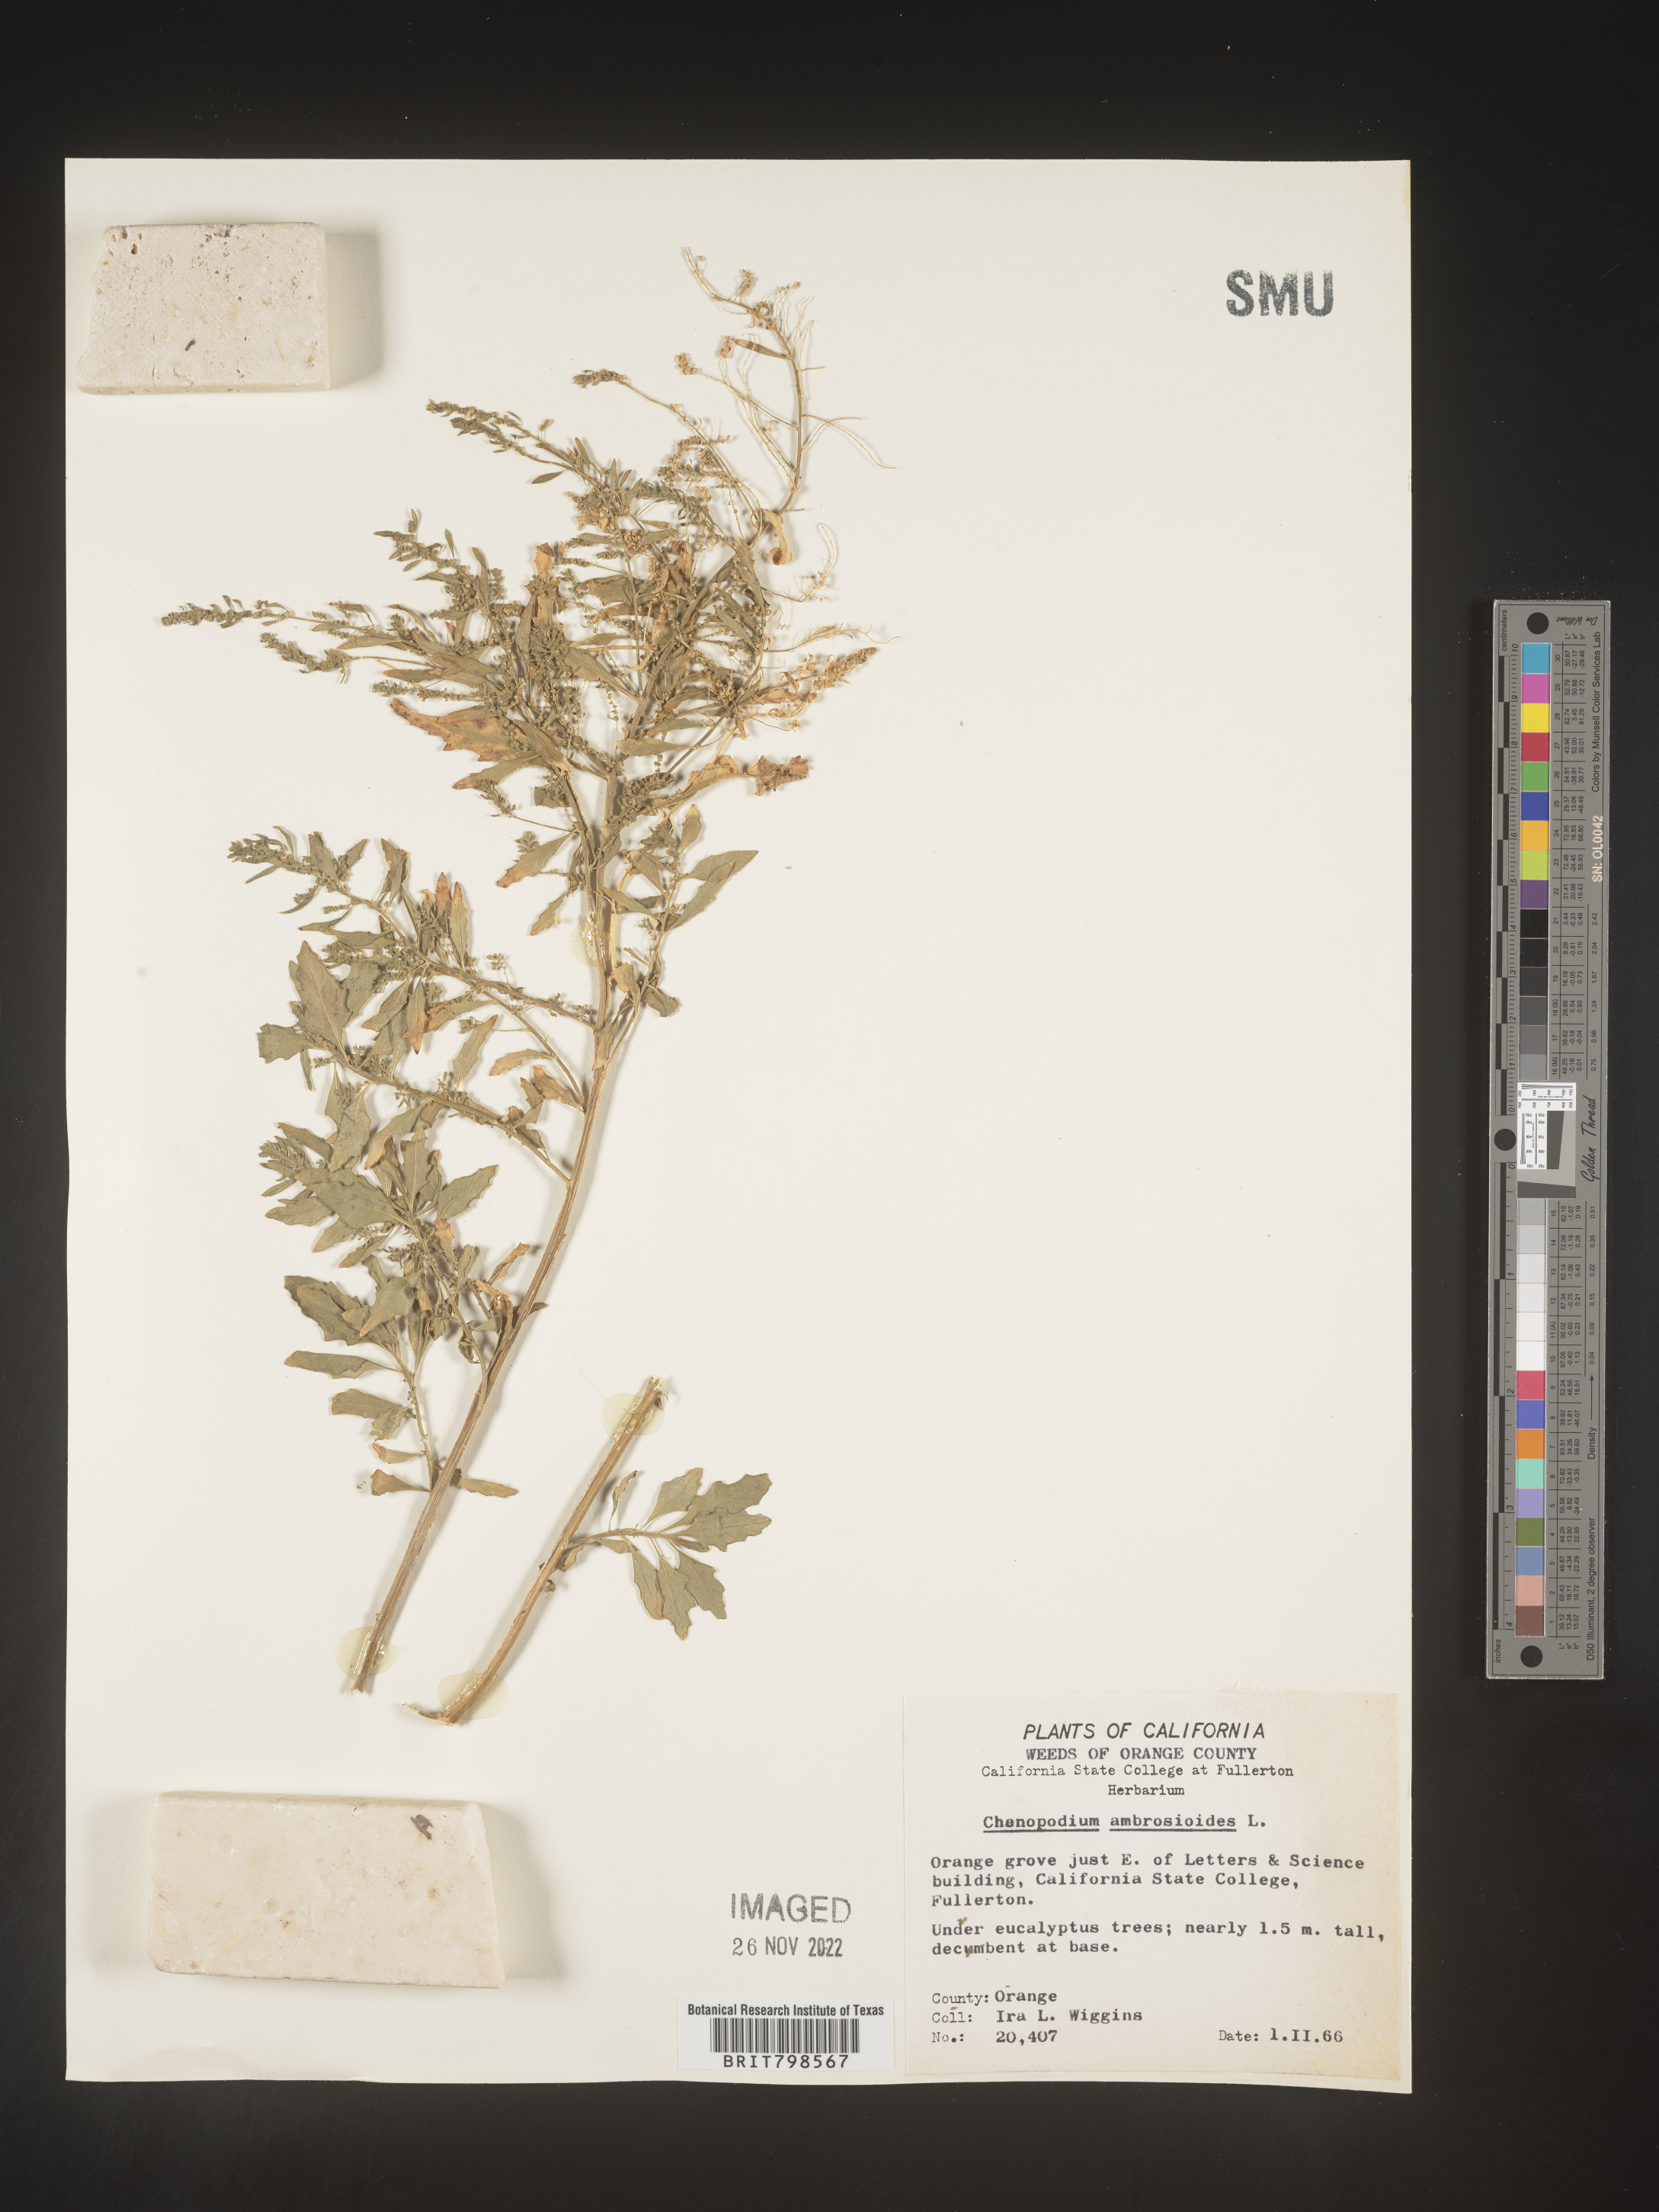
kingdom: Plantae
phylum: Tracheophyta
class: Magnoliopsida
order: Caryophyllales
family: Amaranthaceae
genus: Dysphania
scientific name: Dysphania ambrosioides
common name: Wormseed
